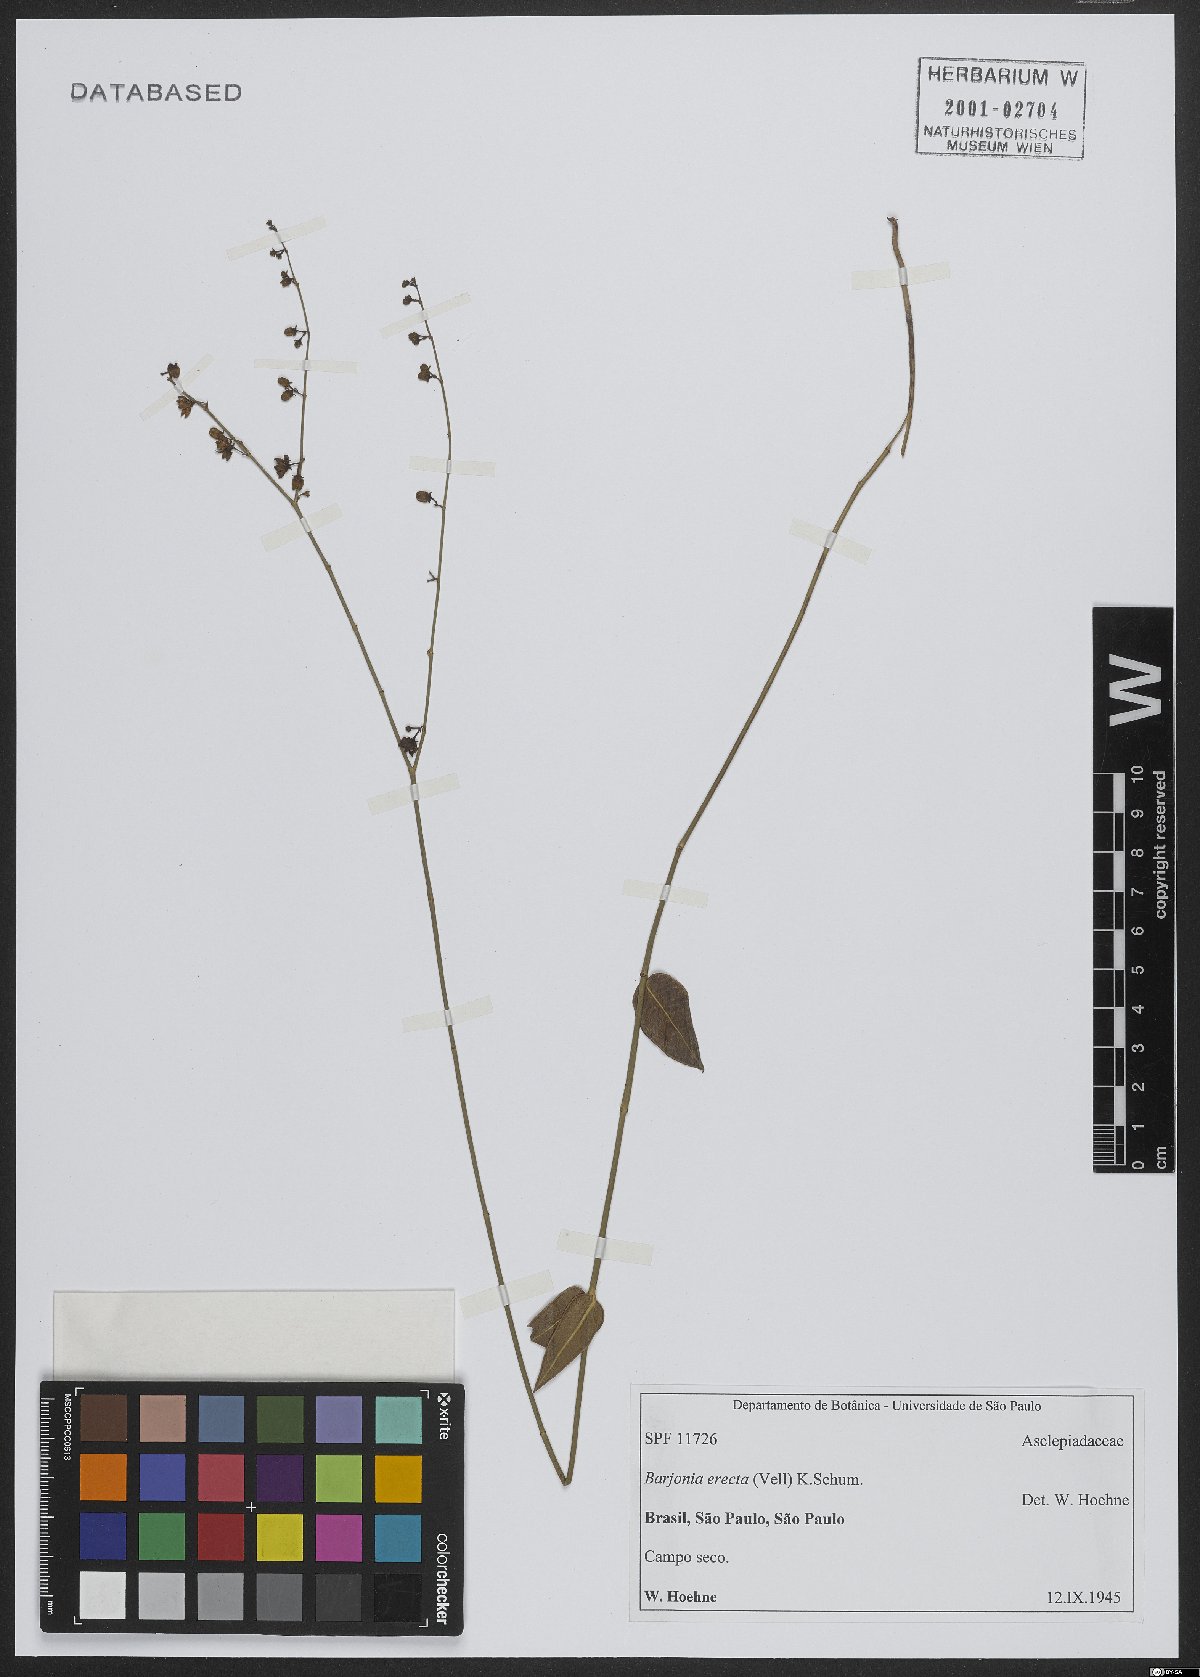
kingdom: Plantae
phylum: Tracheophyta
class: Magnoliopsida
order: Gentianales
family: Apocynaceae
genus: Barjonia
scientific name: Barjonia erecta
